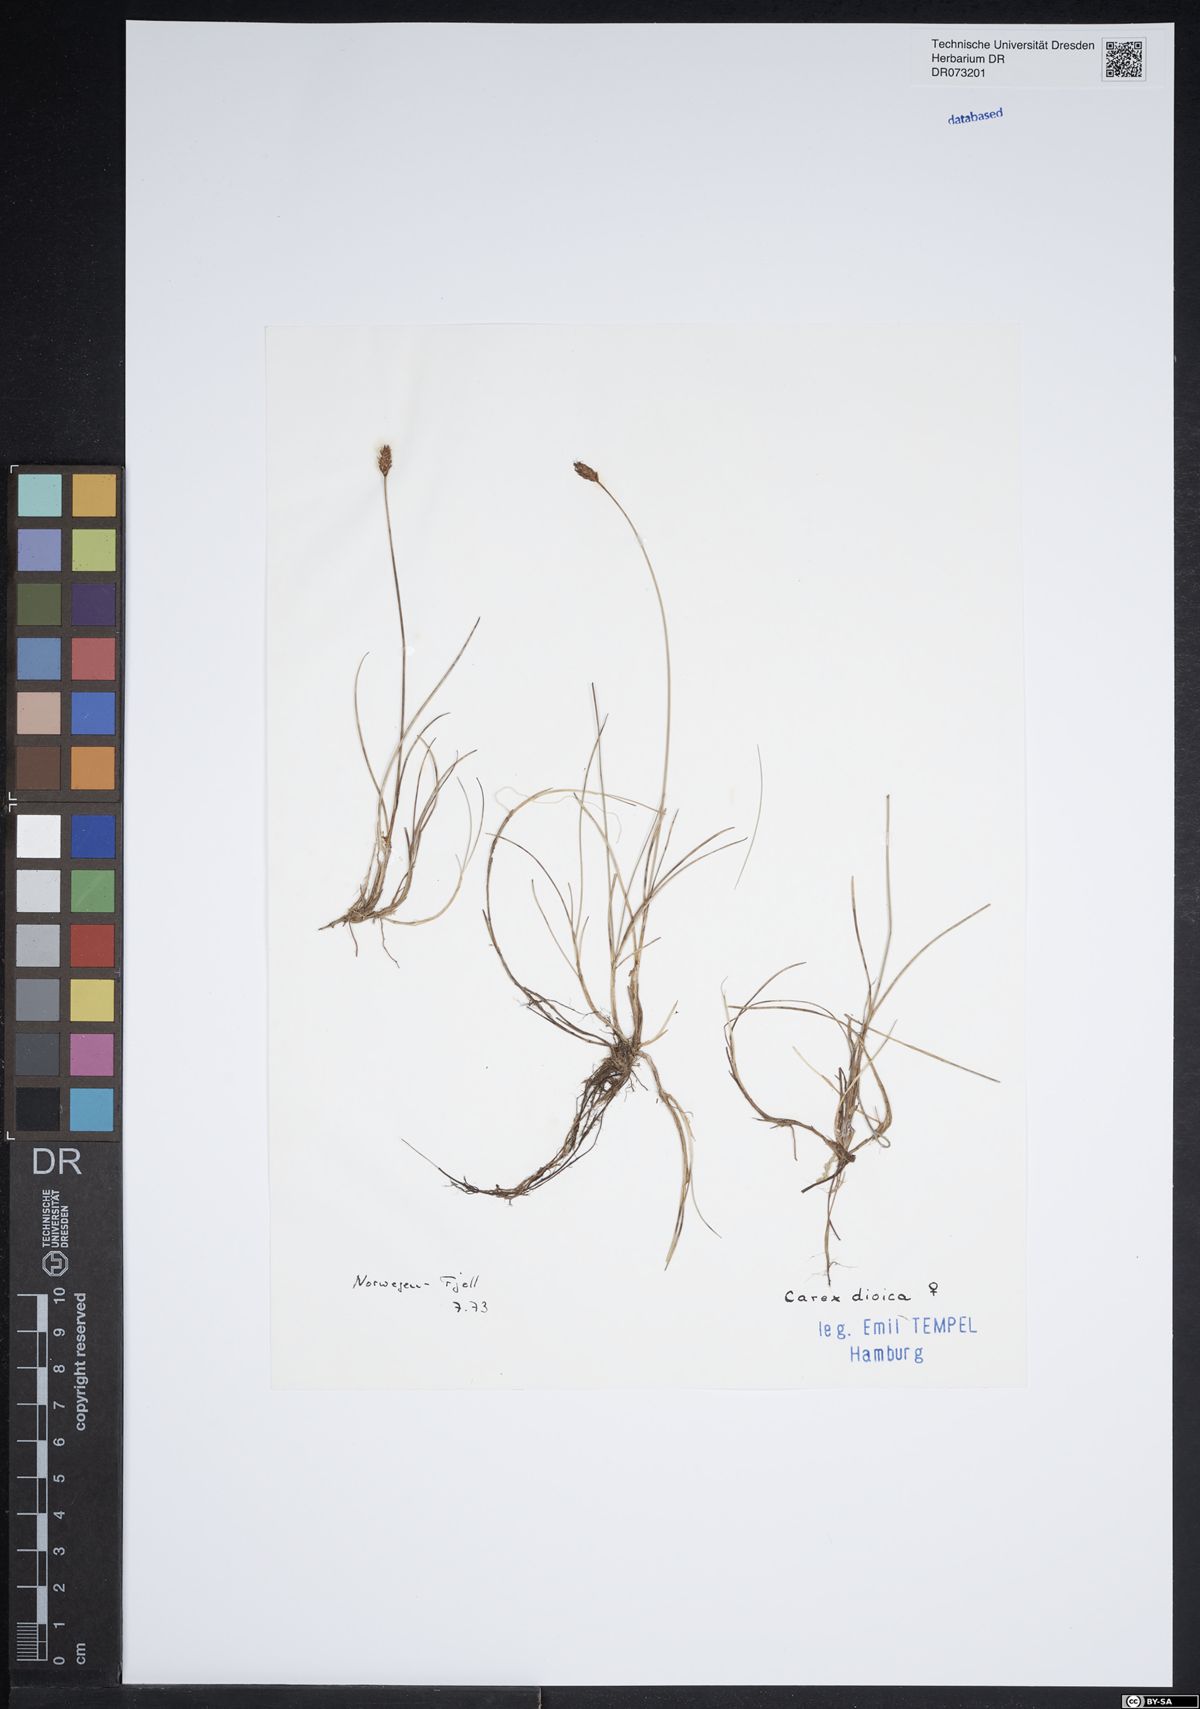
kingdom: Plantae
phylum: Tracheophyta
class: Liliopsida
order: Poales
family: Cyperaceae
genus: Carex
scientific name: Carex dioica
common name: Dioecious sedge
